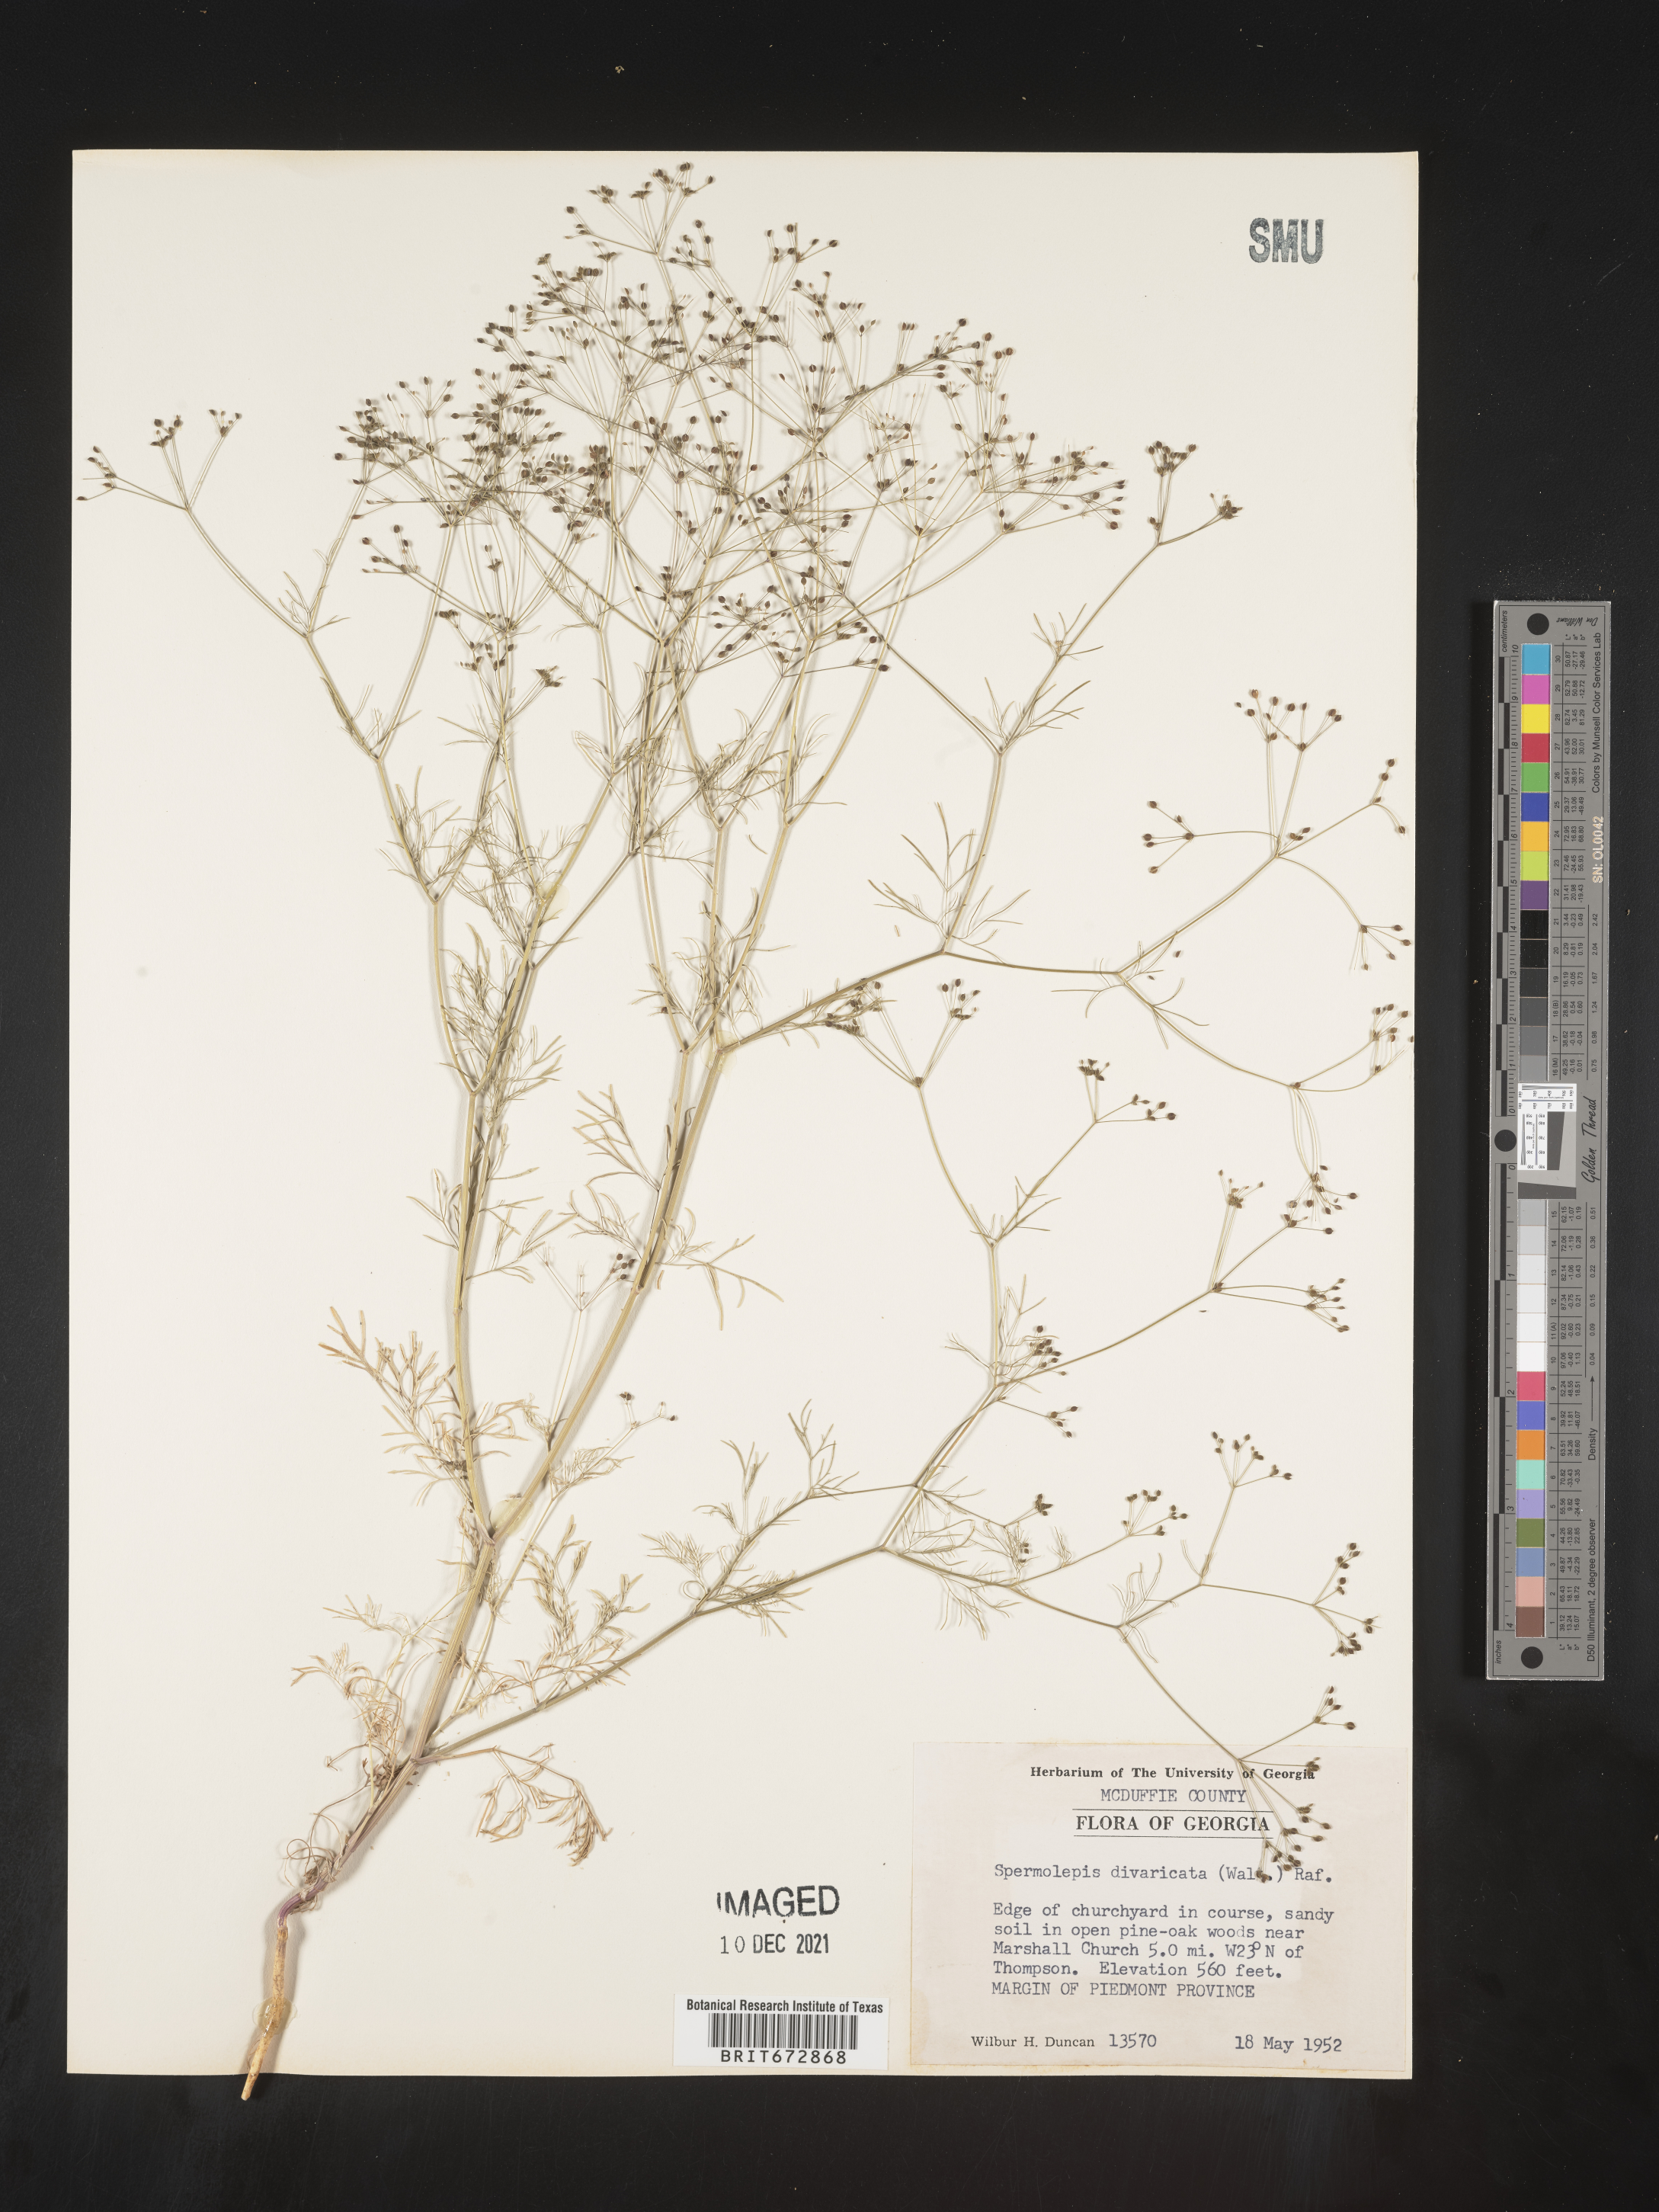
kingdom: Plantae
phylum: Tracheophyta
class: Magnoliopsida
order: Apiales
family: Apiaceae
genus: Spermolepis
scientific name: Spermolepis divaricata
